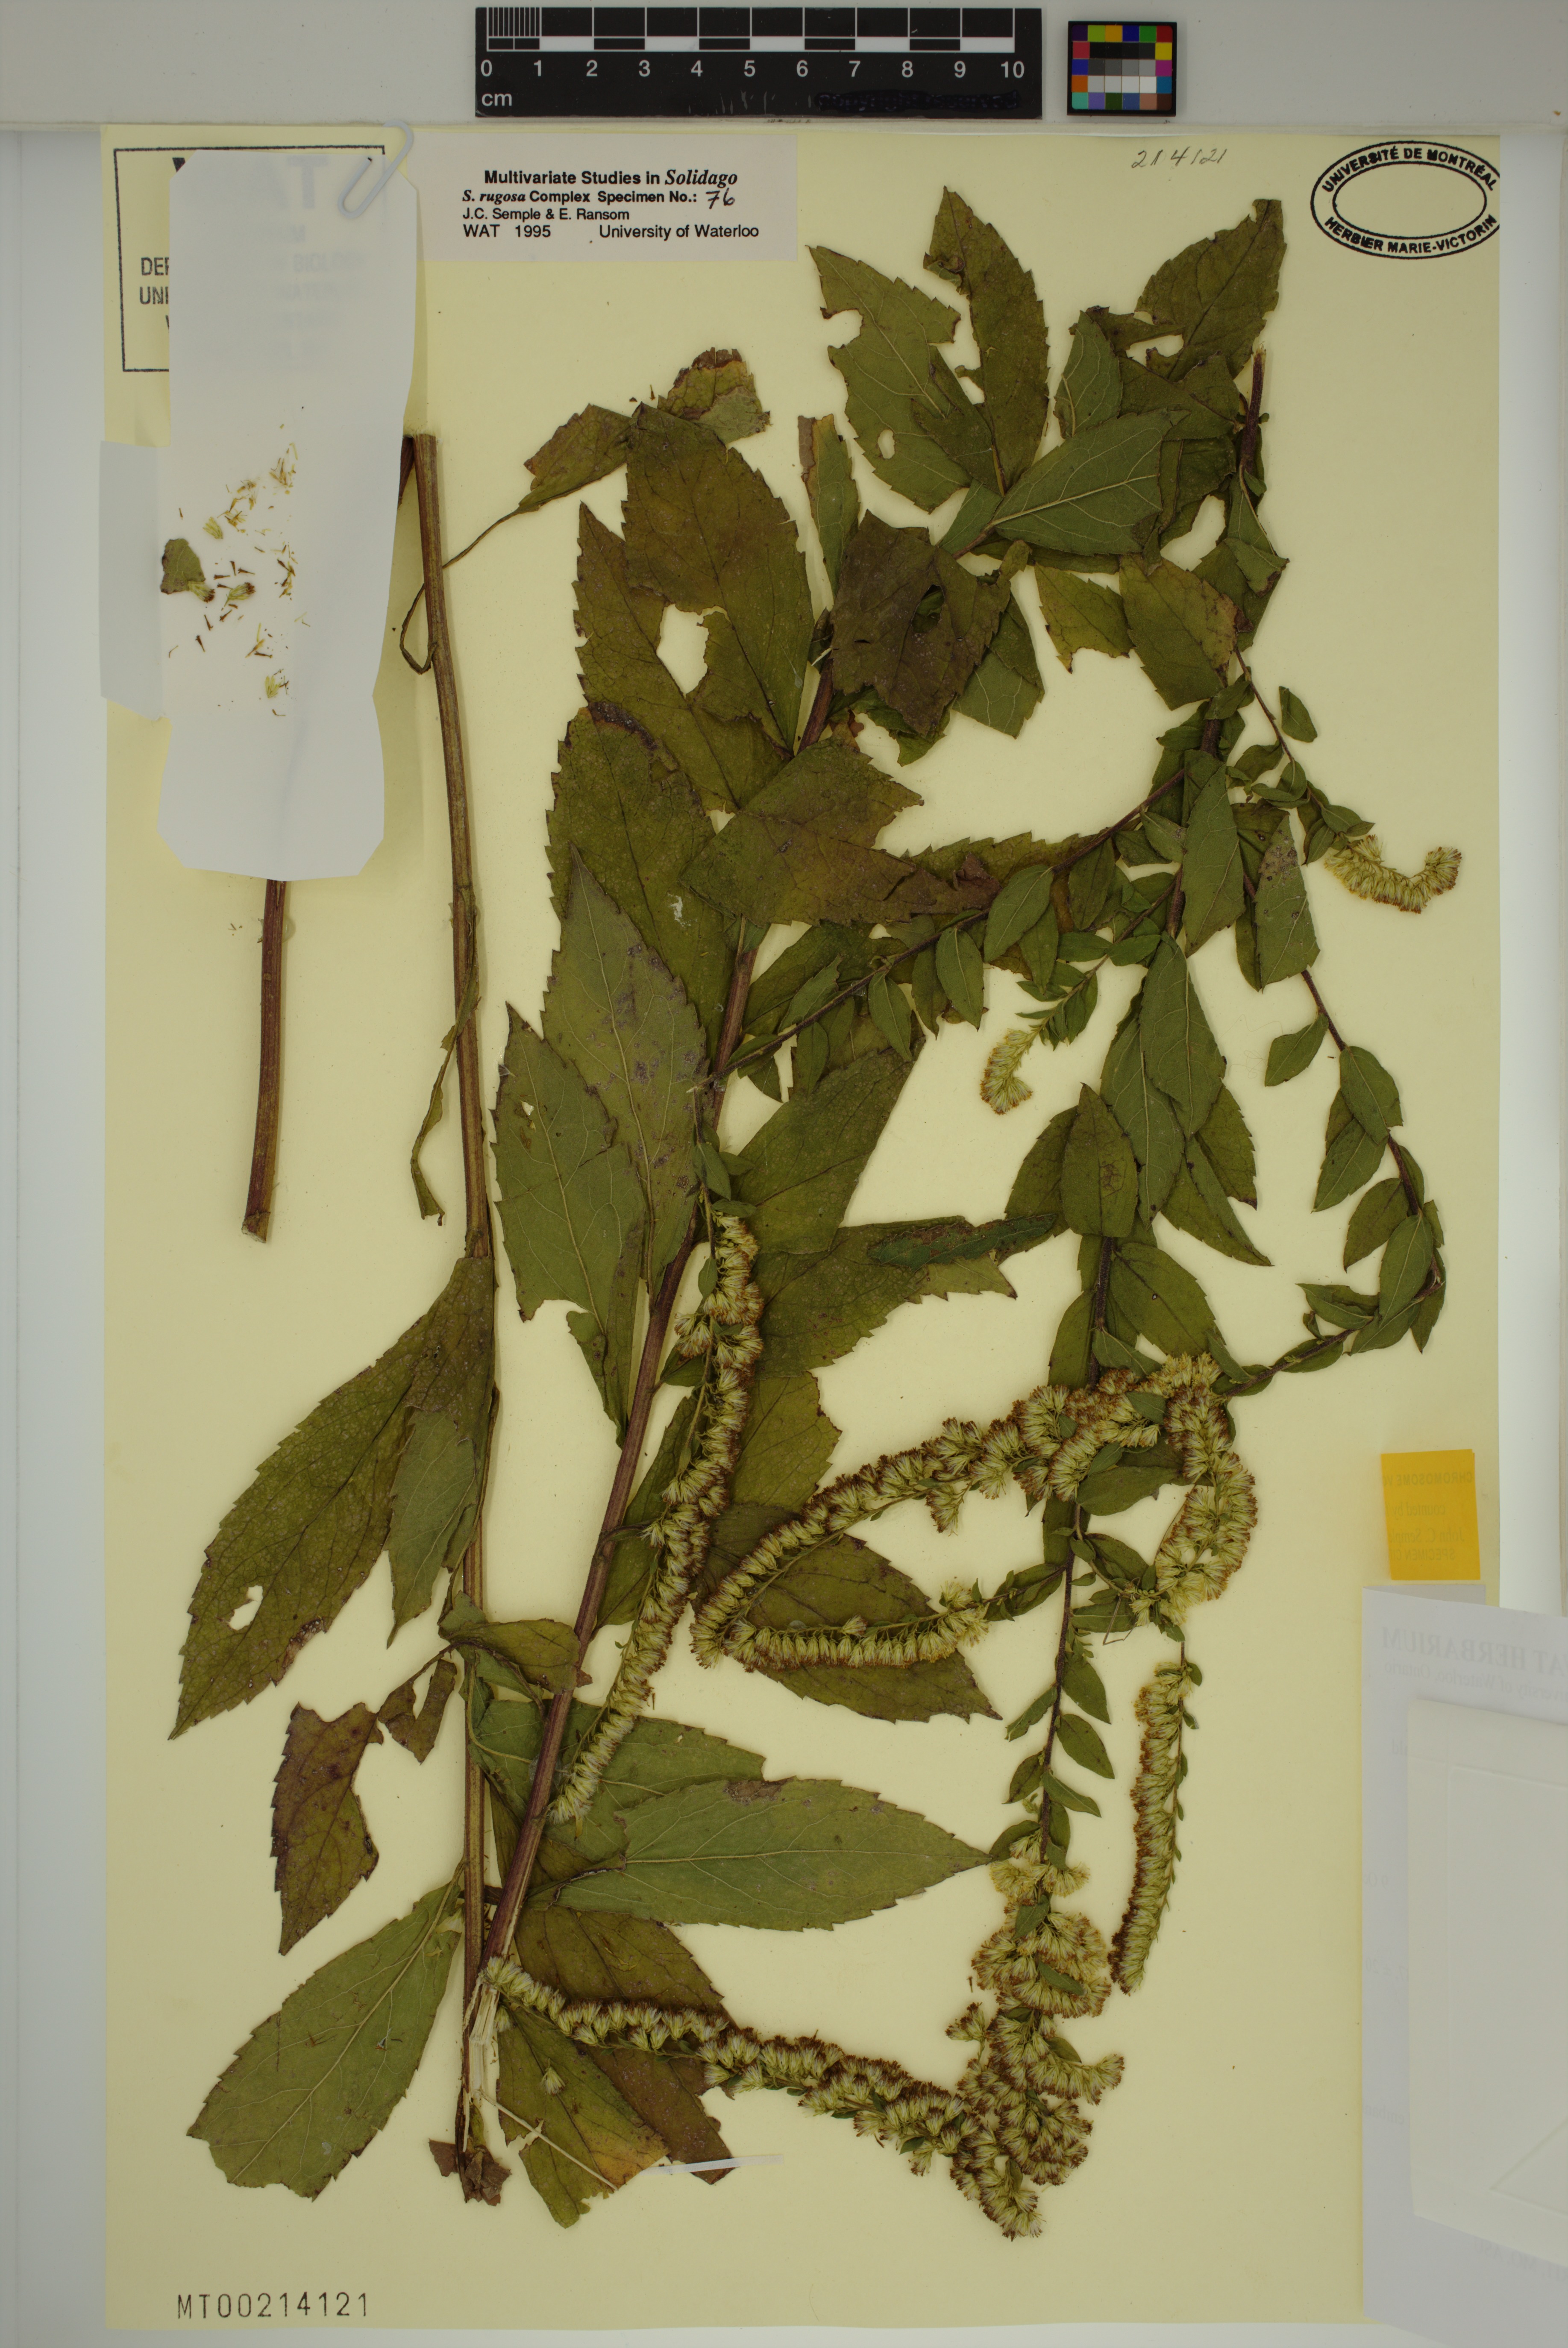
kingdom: Plantae
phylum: Tracheophyta
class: Magnoliopsida
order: Asterales
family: Asteraceae
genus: Solidago
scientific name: Solidago rugosa
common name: Rough-stemmed goldenrod
